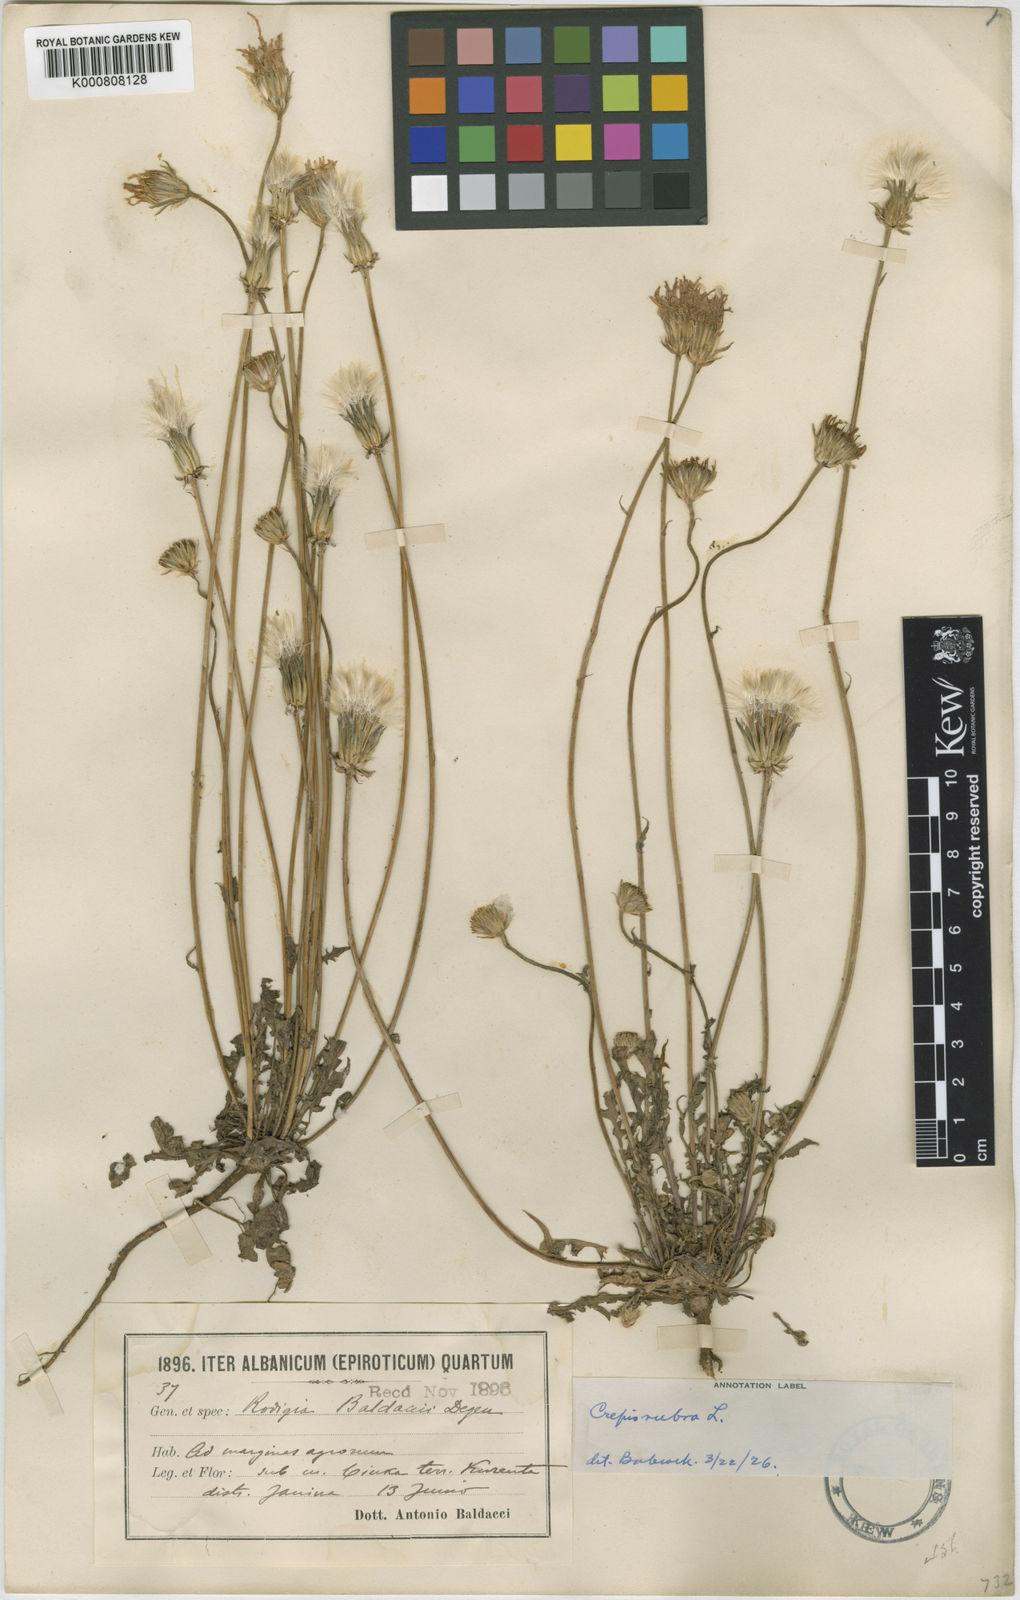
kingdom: Plantae
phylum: Tracheophyta
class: Magnoliopsida
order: Asterales
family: Asteraceae
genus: Crepis
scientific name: Crepis rubra
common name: Pink hawk's-beard
